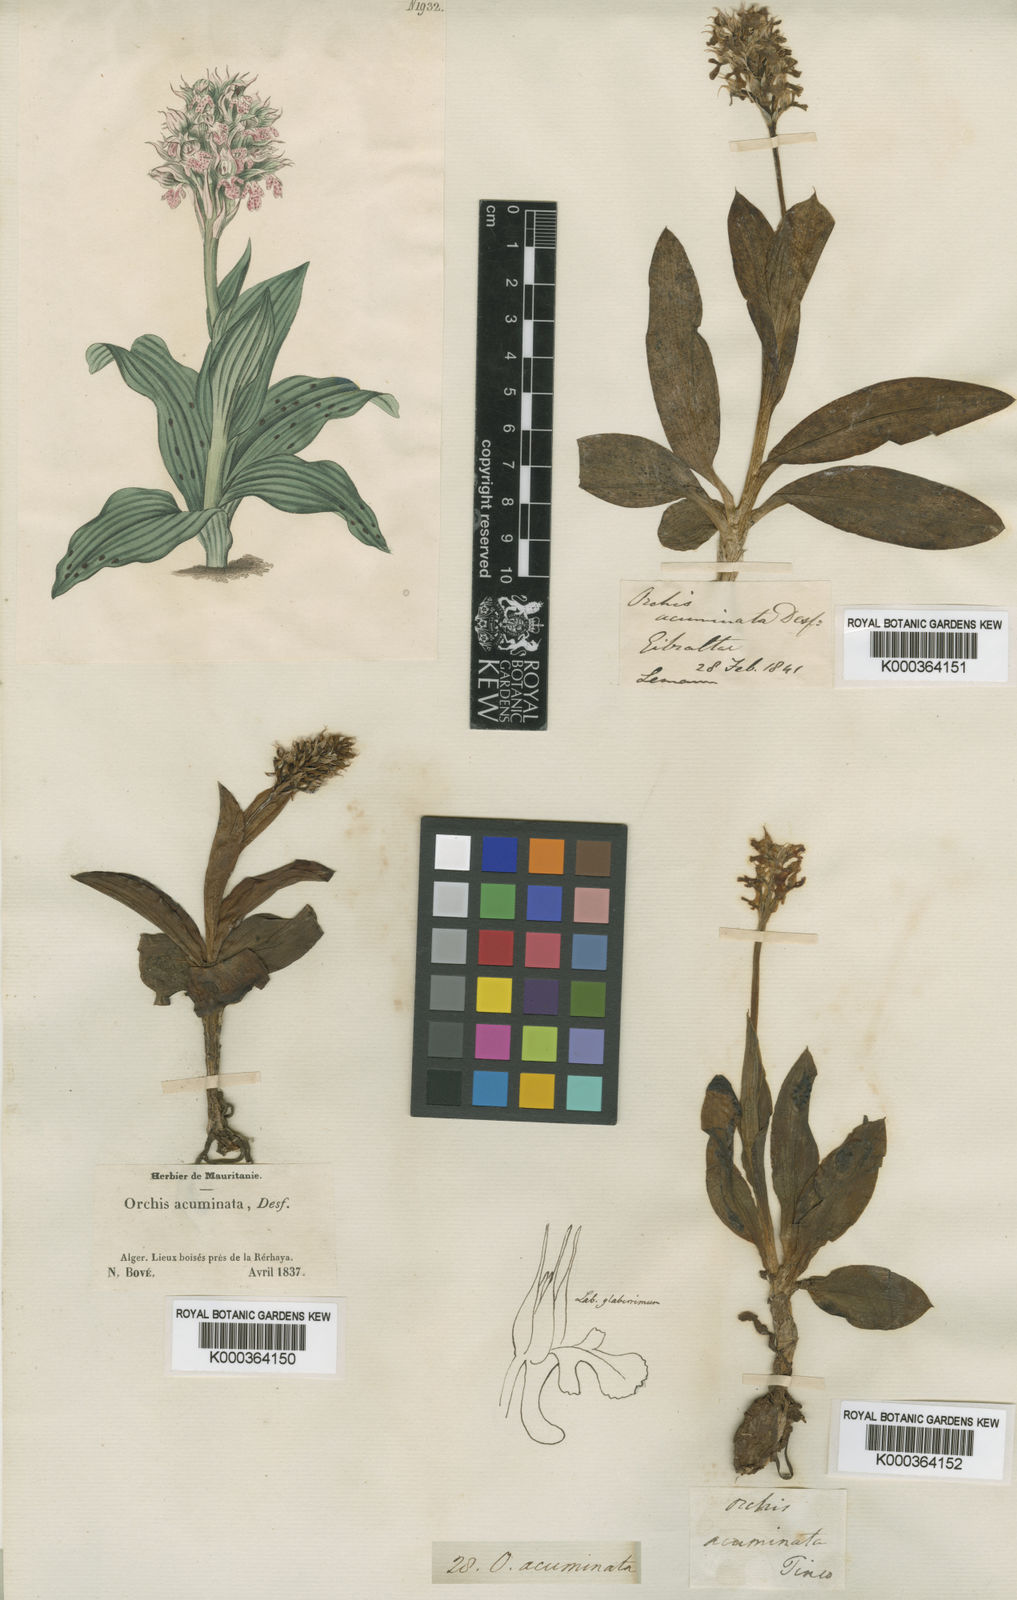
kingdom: Plantae
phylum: Tracheophyta
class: Liliopsida
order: Asparagales
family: Orchidaceae
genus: Neotinea
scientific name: Neotinea lactea
